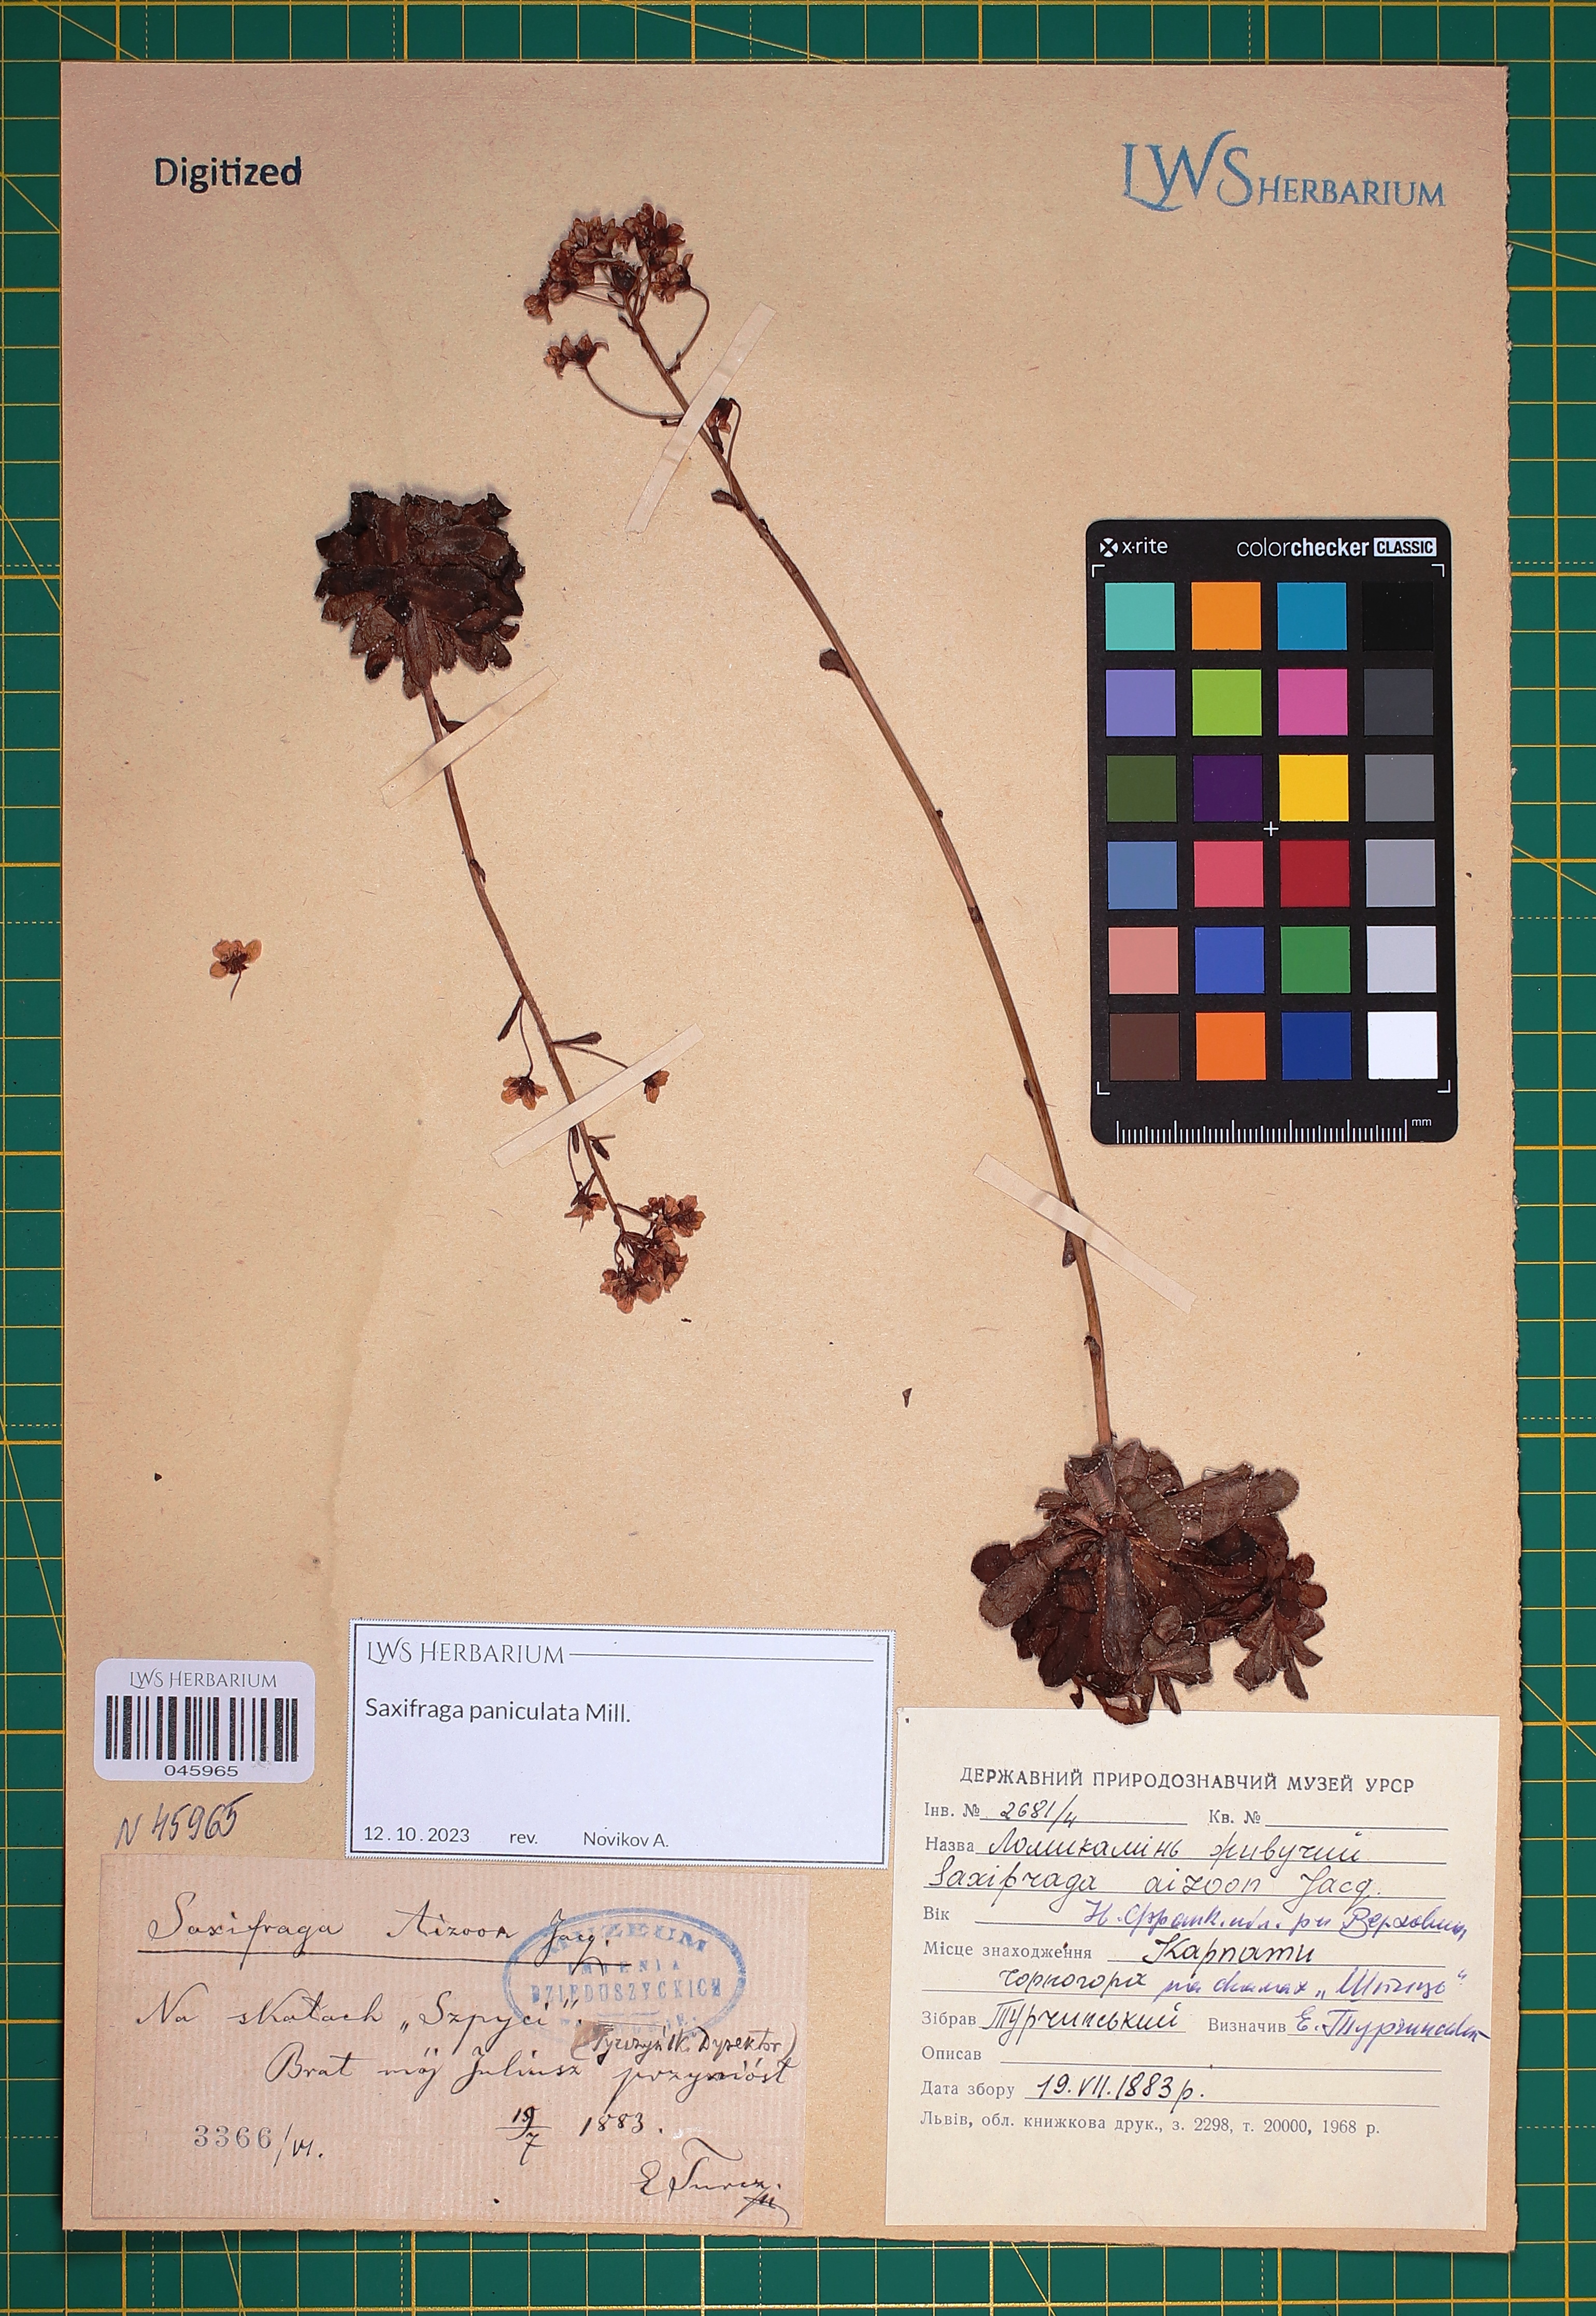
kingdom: Plantae
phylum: Tracheophyta
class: Magnoliopsida
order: Saxifragales
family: Saxifragaceae
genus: Saxifraga
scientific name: Saxifraga paniculata
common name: Livelong saxifrage
